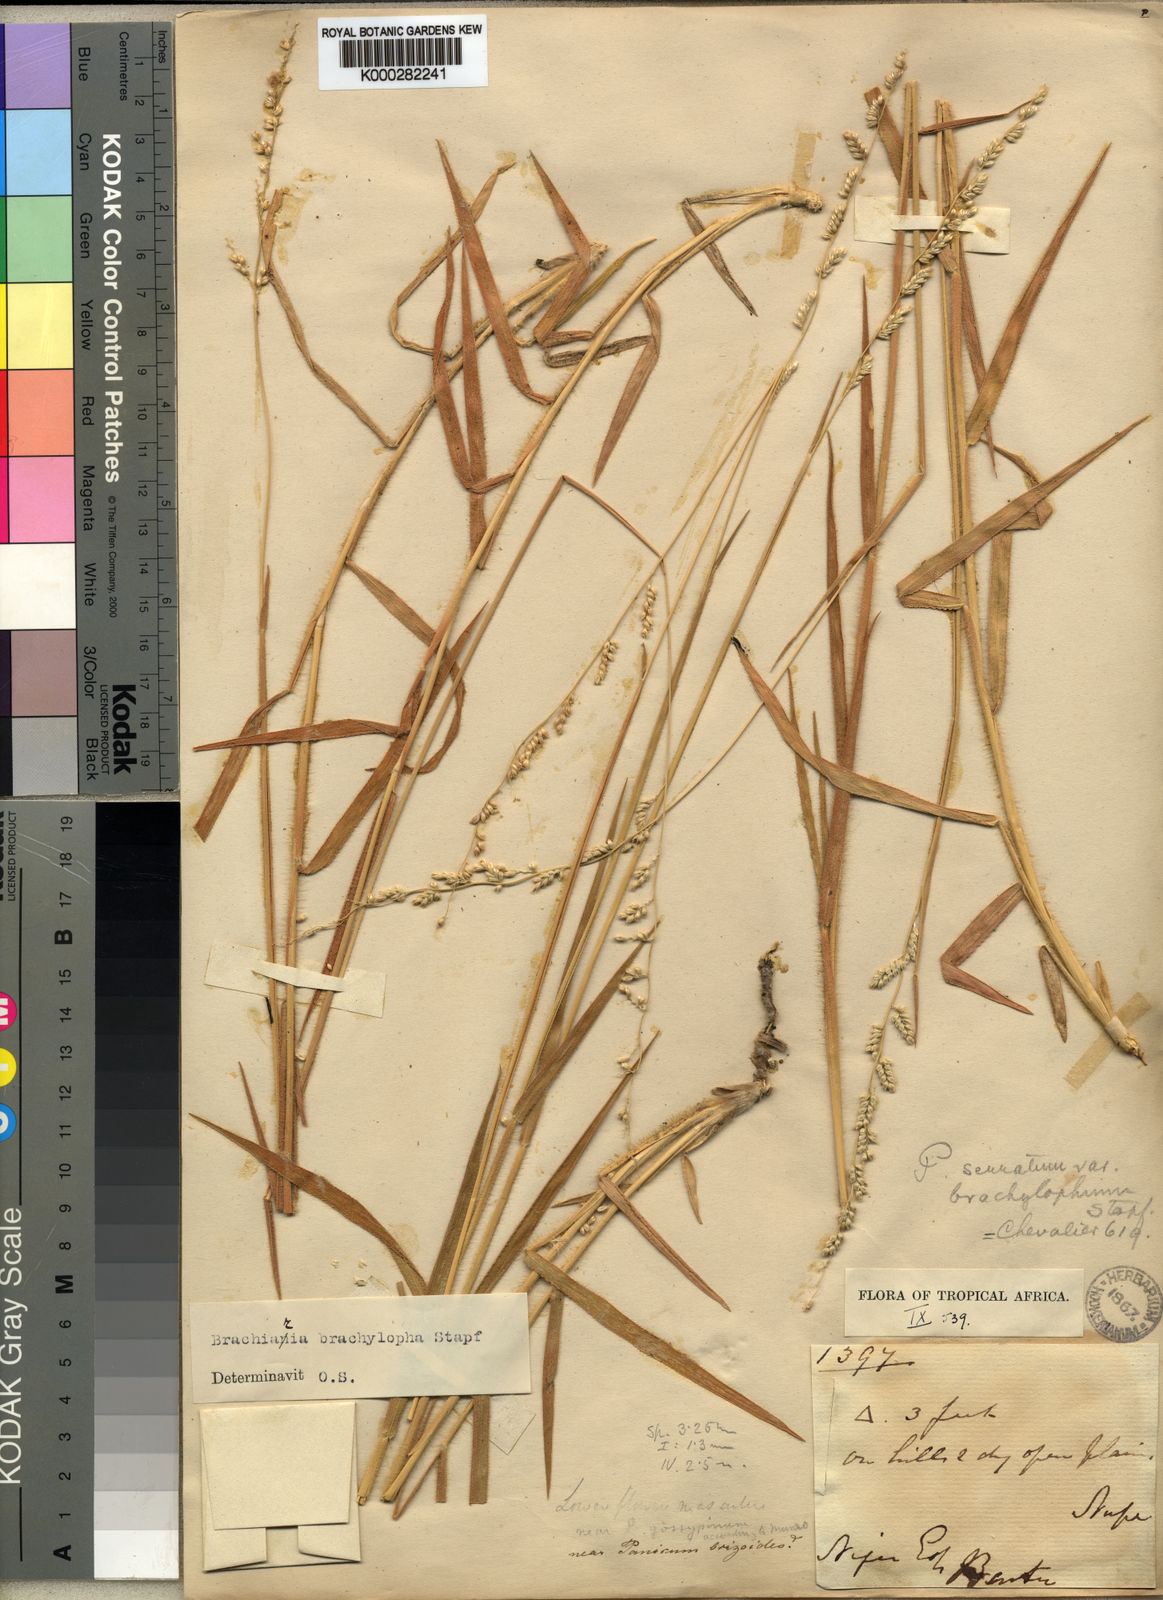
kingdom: Plantae
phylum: Tracheophyta
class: Liliopsida
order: Poales
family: Poaceae
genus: Urochloa
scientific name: Urochloa serrata
